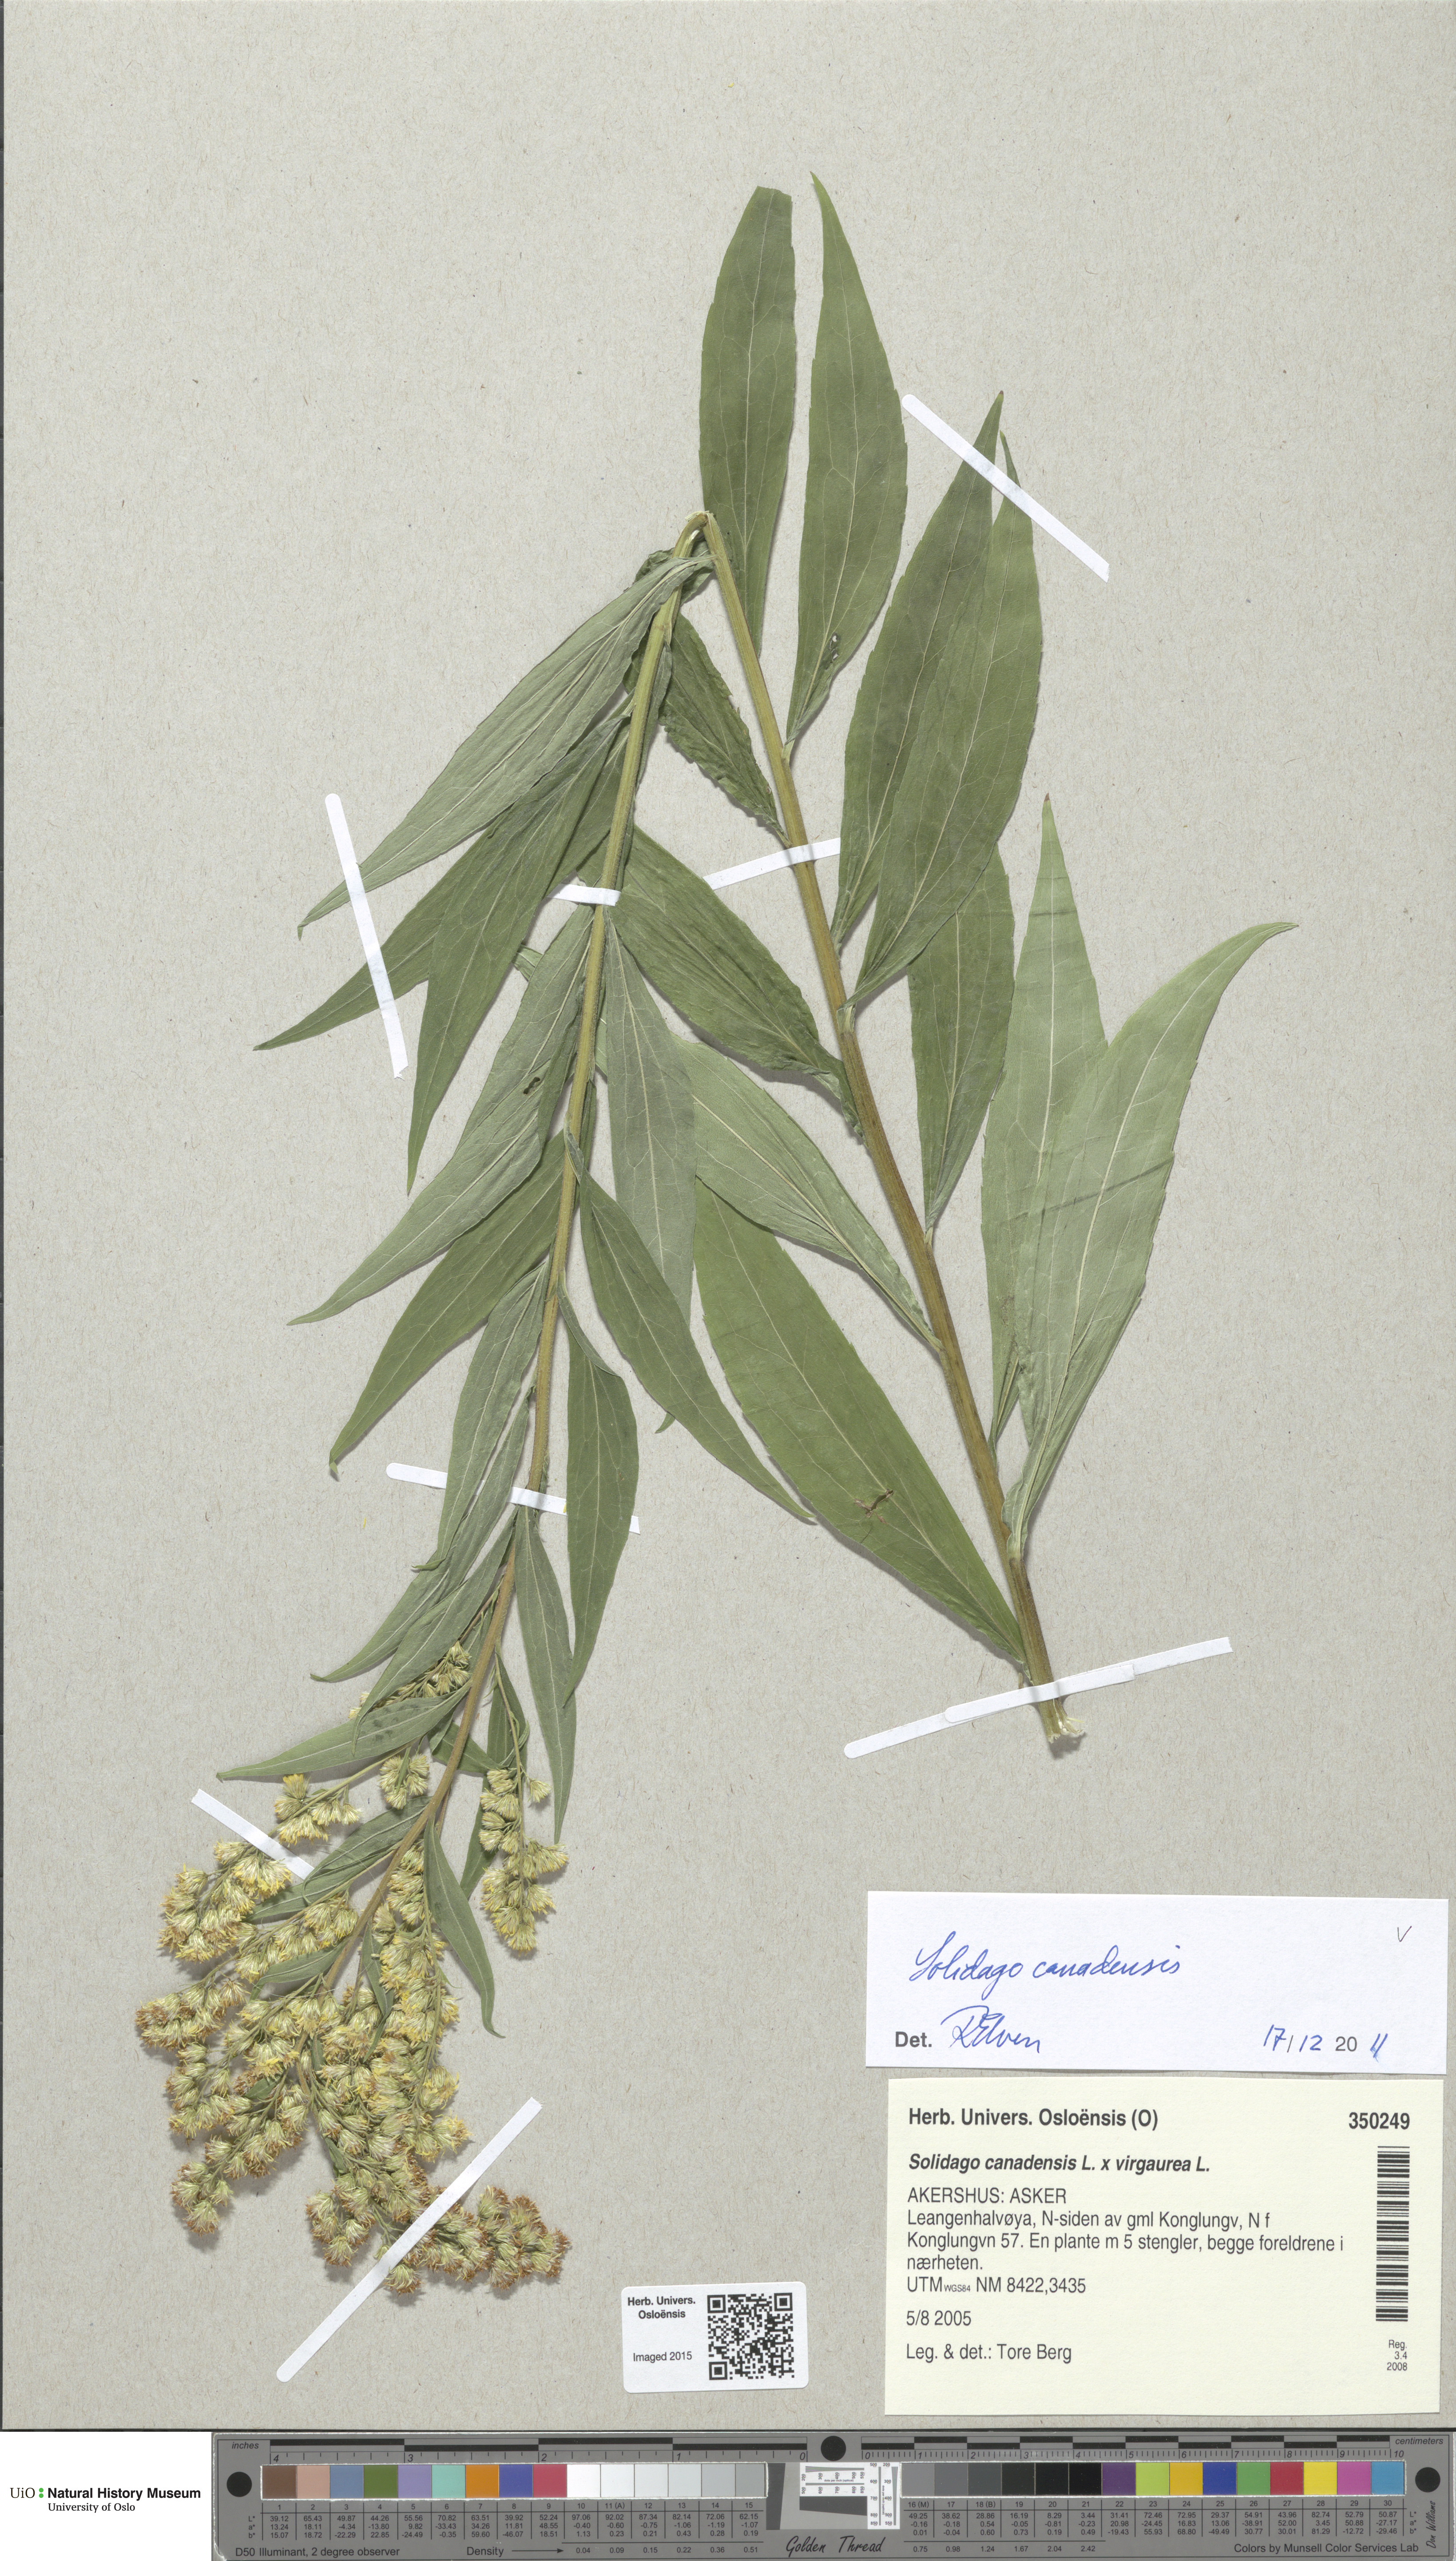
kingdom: Plantae
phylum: Tracheophyta
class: Magnoliopsida
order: Asterales
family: Asteraceae
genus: Solidago
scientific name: Solidago canadensis
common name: Canada goldenrod
